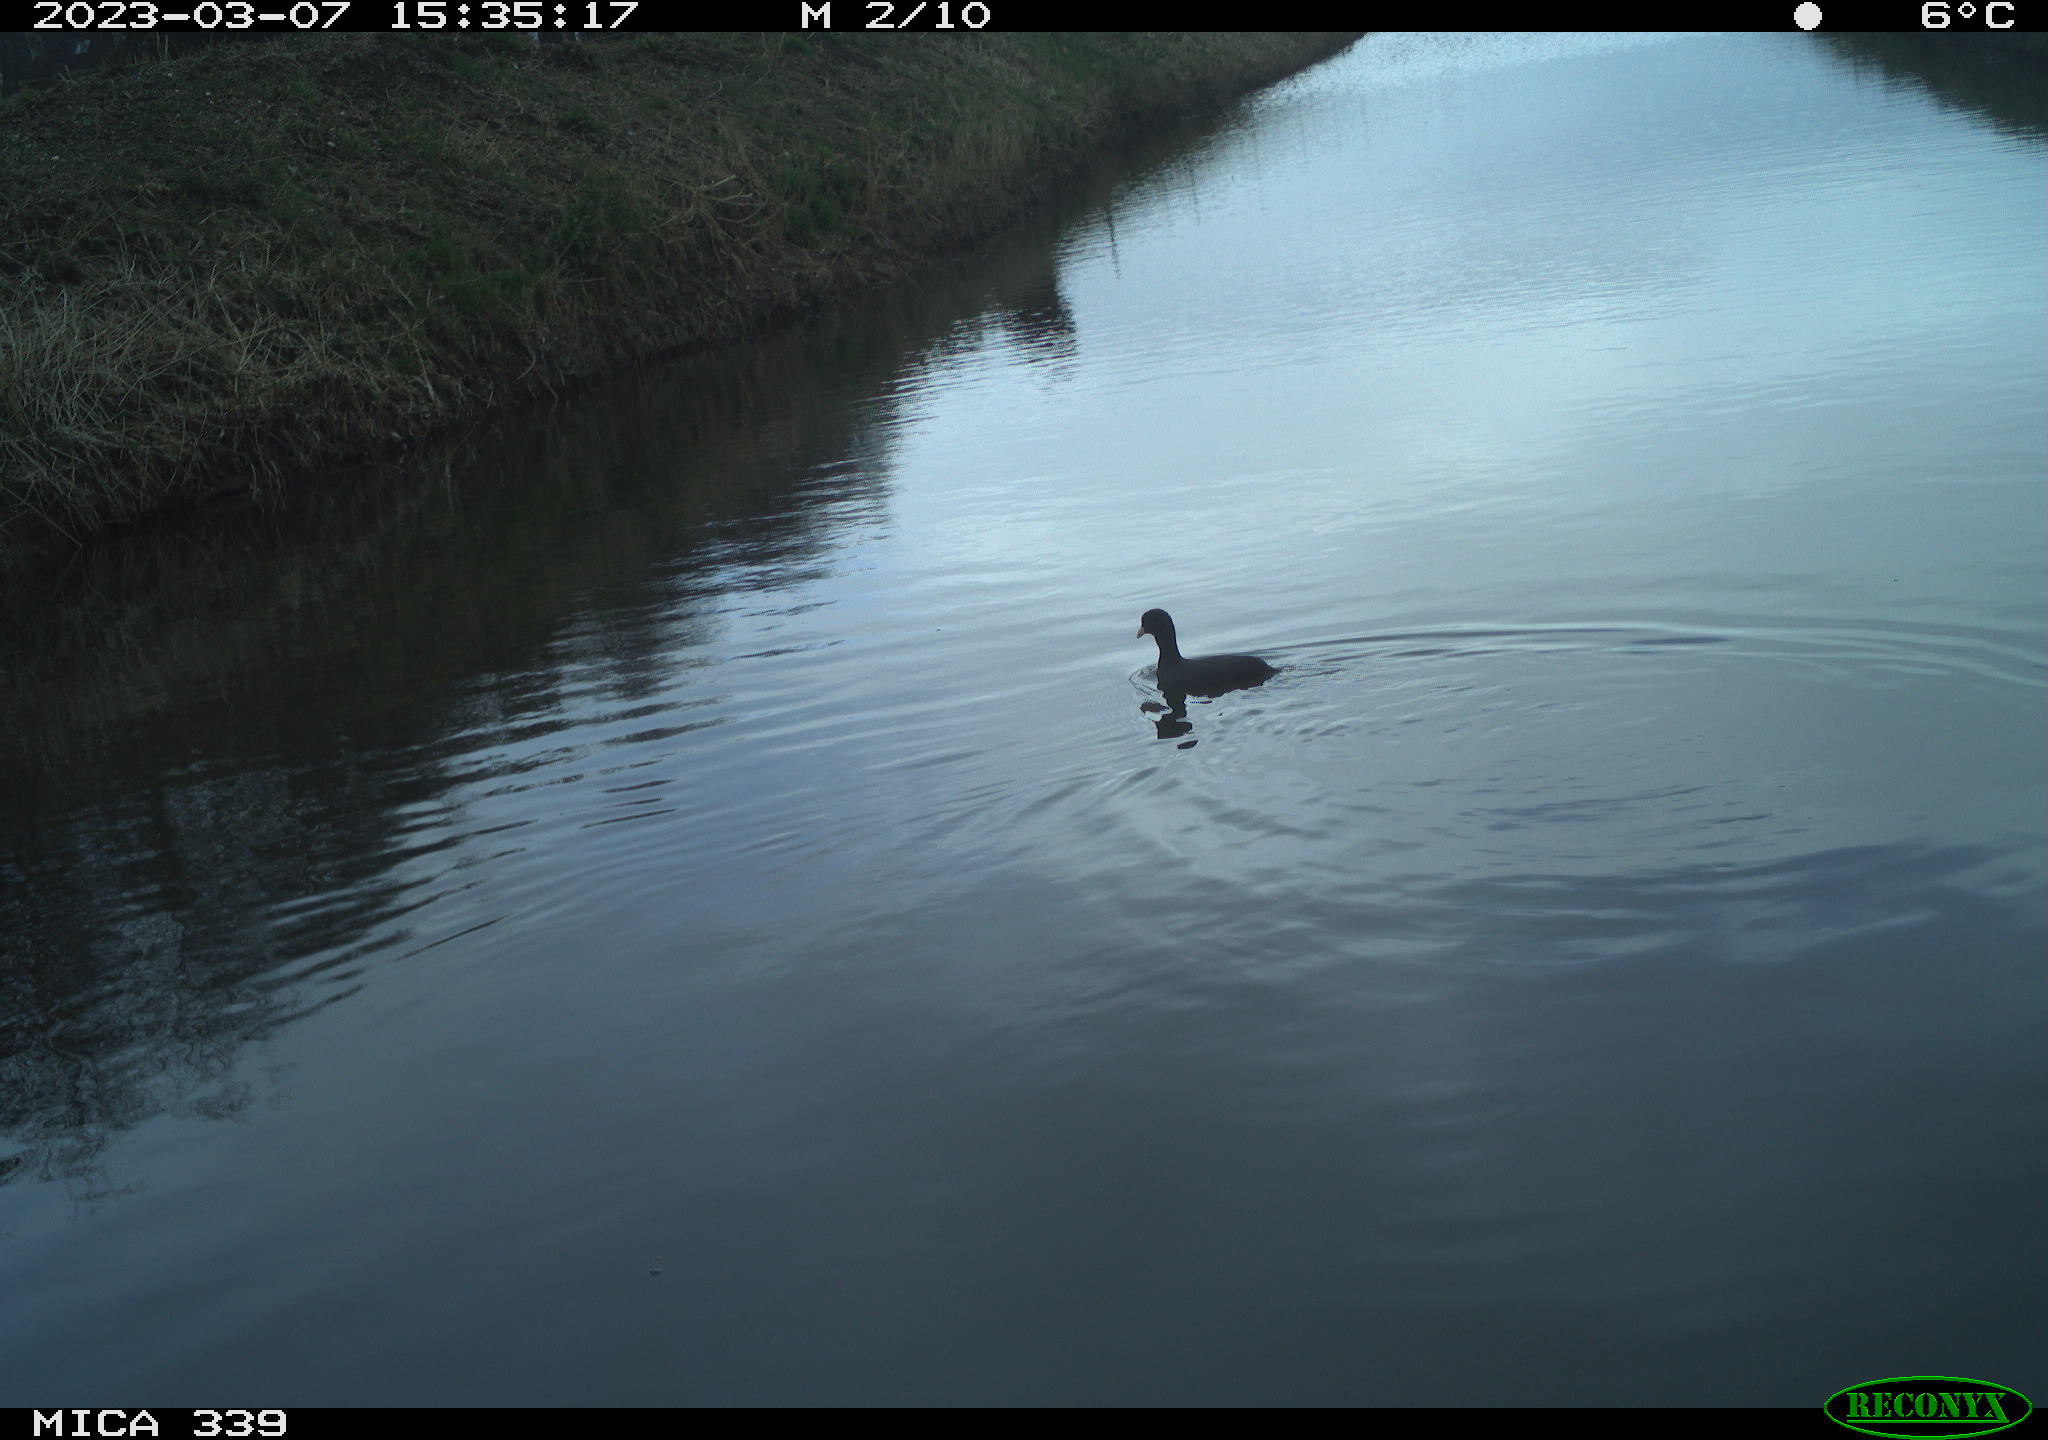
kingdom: Animalia
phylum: Chordata
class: Aves
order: Gruiformes
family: Rallidae
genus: Fulica
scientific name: Fulica atra
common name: Eurasian coot
